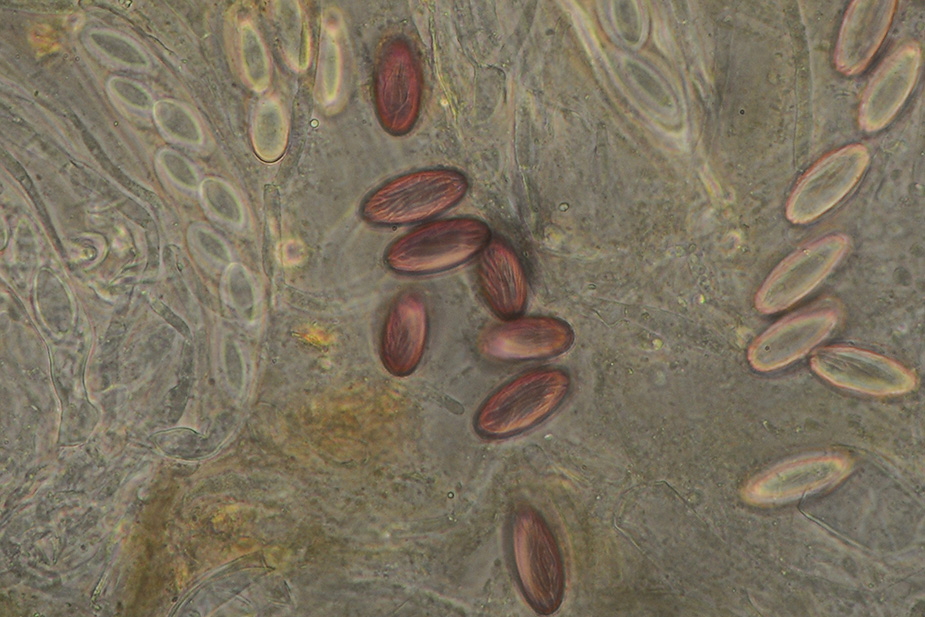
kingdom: Fungi
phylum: Ascomycota
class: Pezizomycetes
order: Pezizales
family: Ascobolaceae
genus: Ascobolus
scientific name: Ascobolus furfuraceus
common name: almindelig prikbæger
